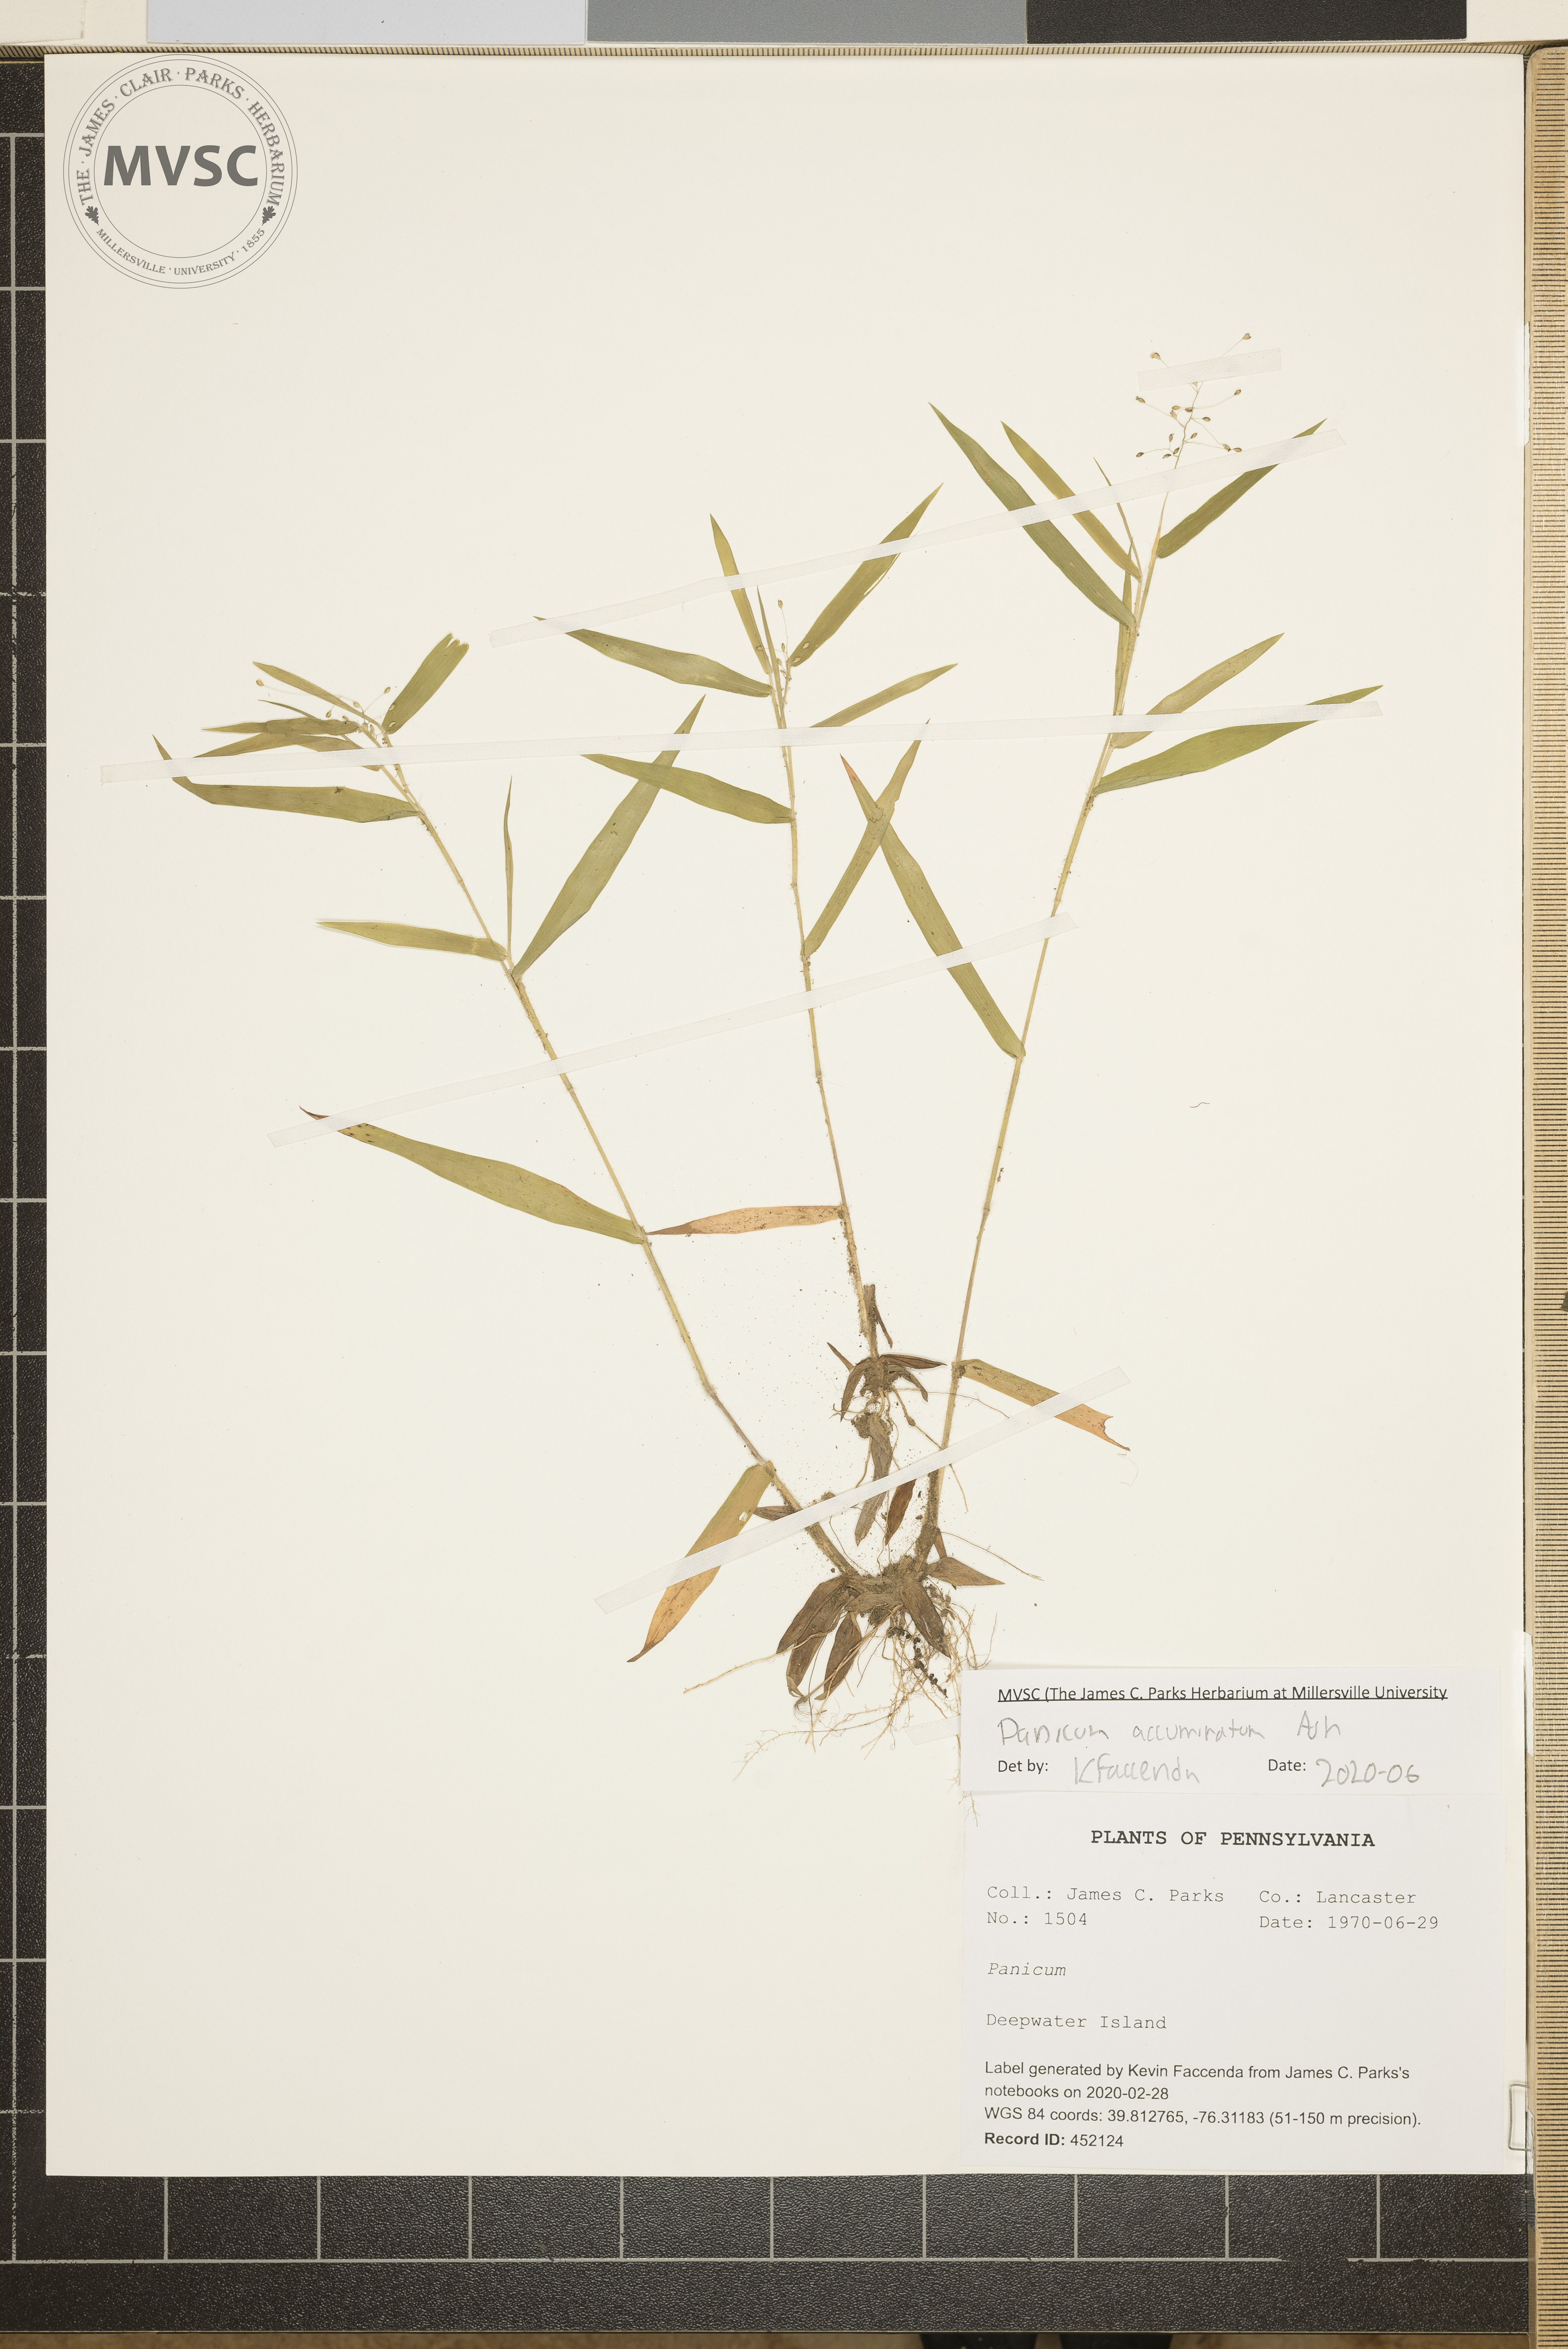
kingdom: Plantae
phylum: Tracheophyta
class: Liliopsida
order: Poales
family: Poaceae
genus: Panicum
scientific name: Panicum acuminatum
